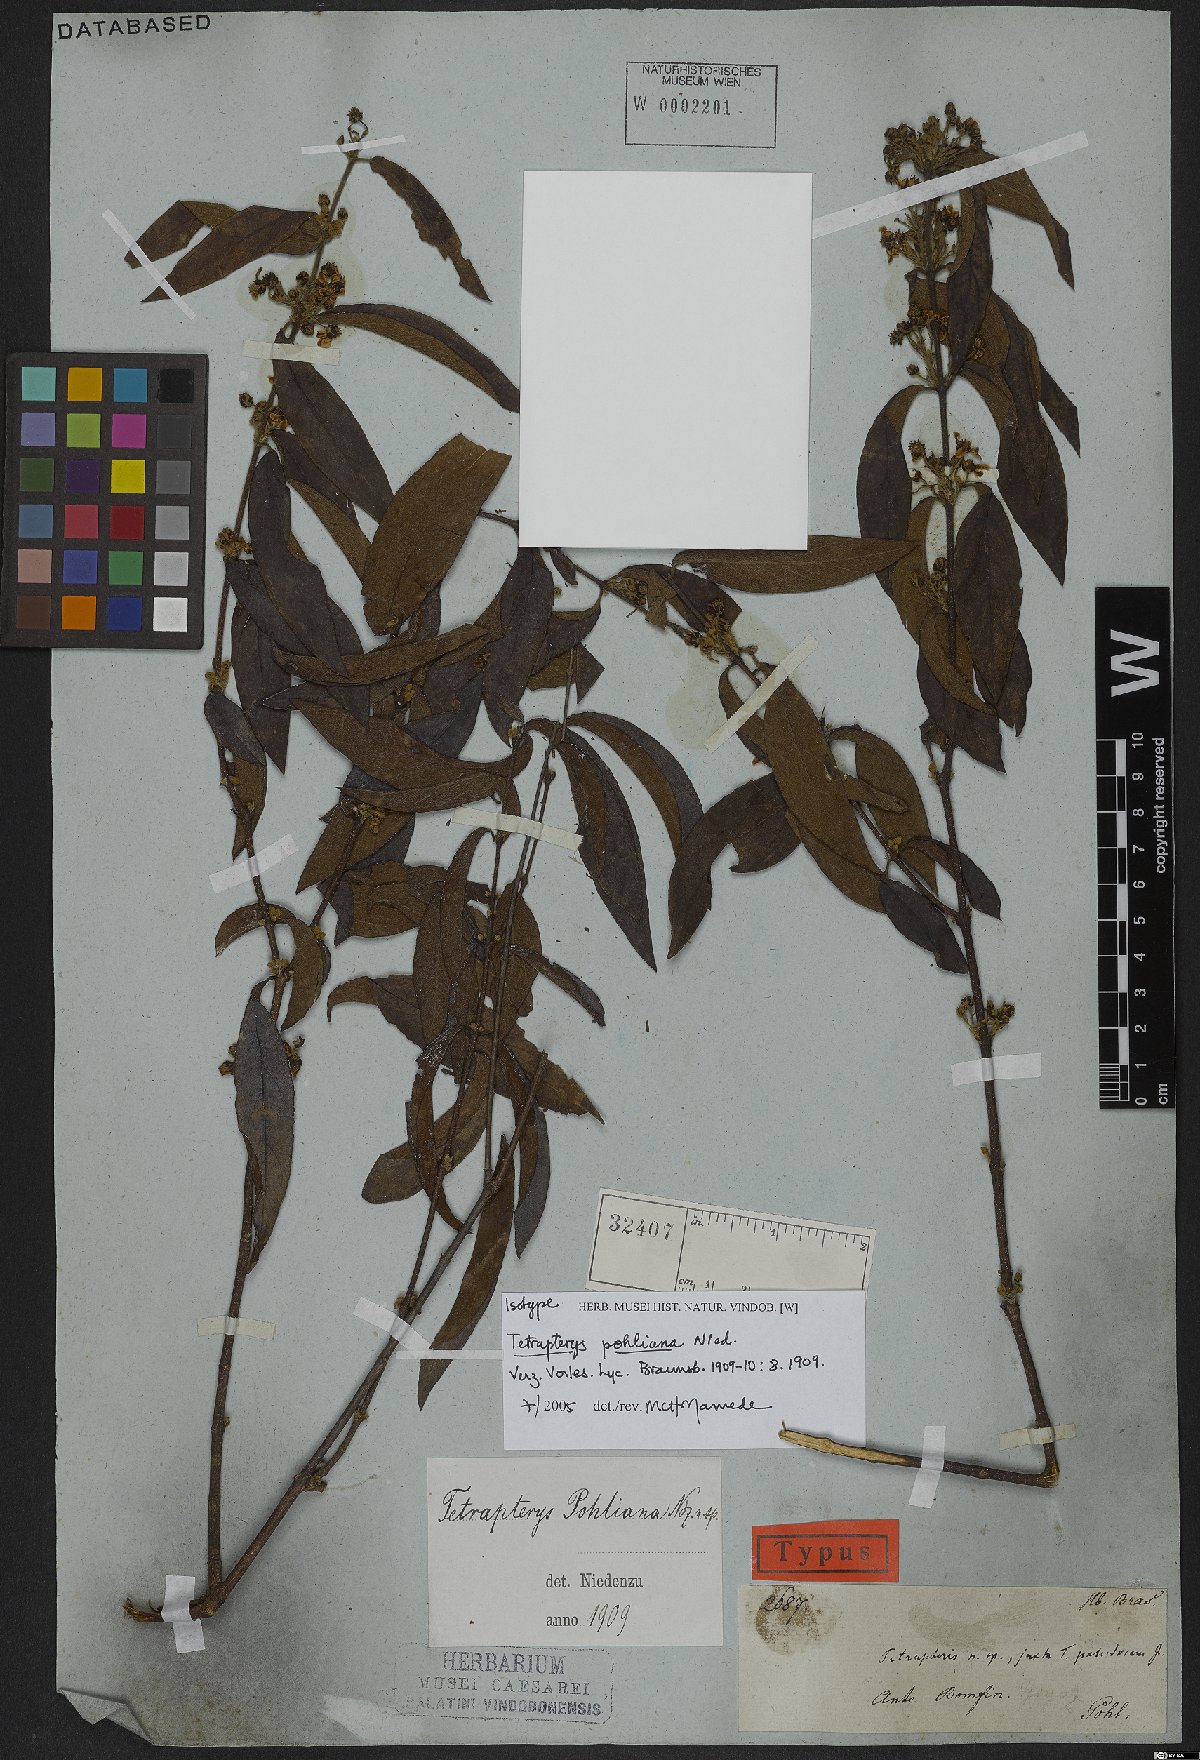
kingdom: Plantae
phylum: Tracheophyta
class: Magnoliopsida
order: Malpighiales
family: Malpighiaceae
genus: Glicophyllum
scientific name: Glicophyllum pohlianum
